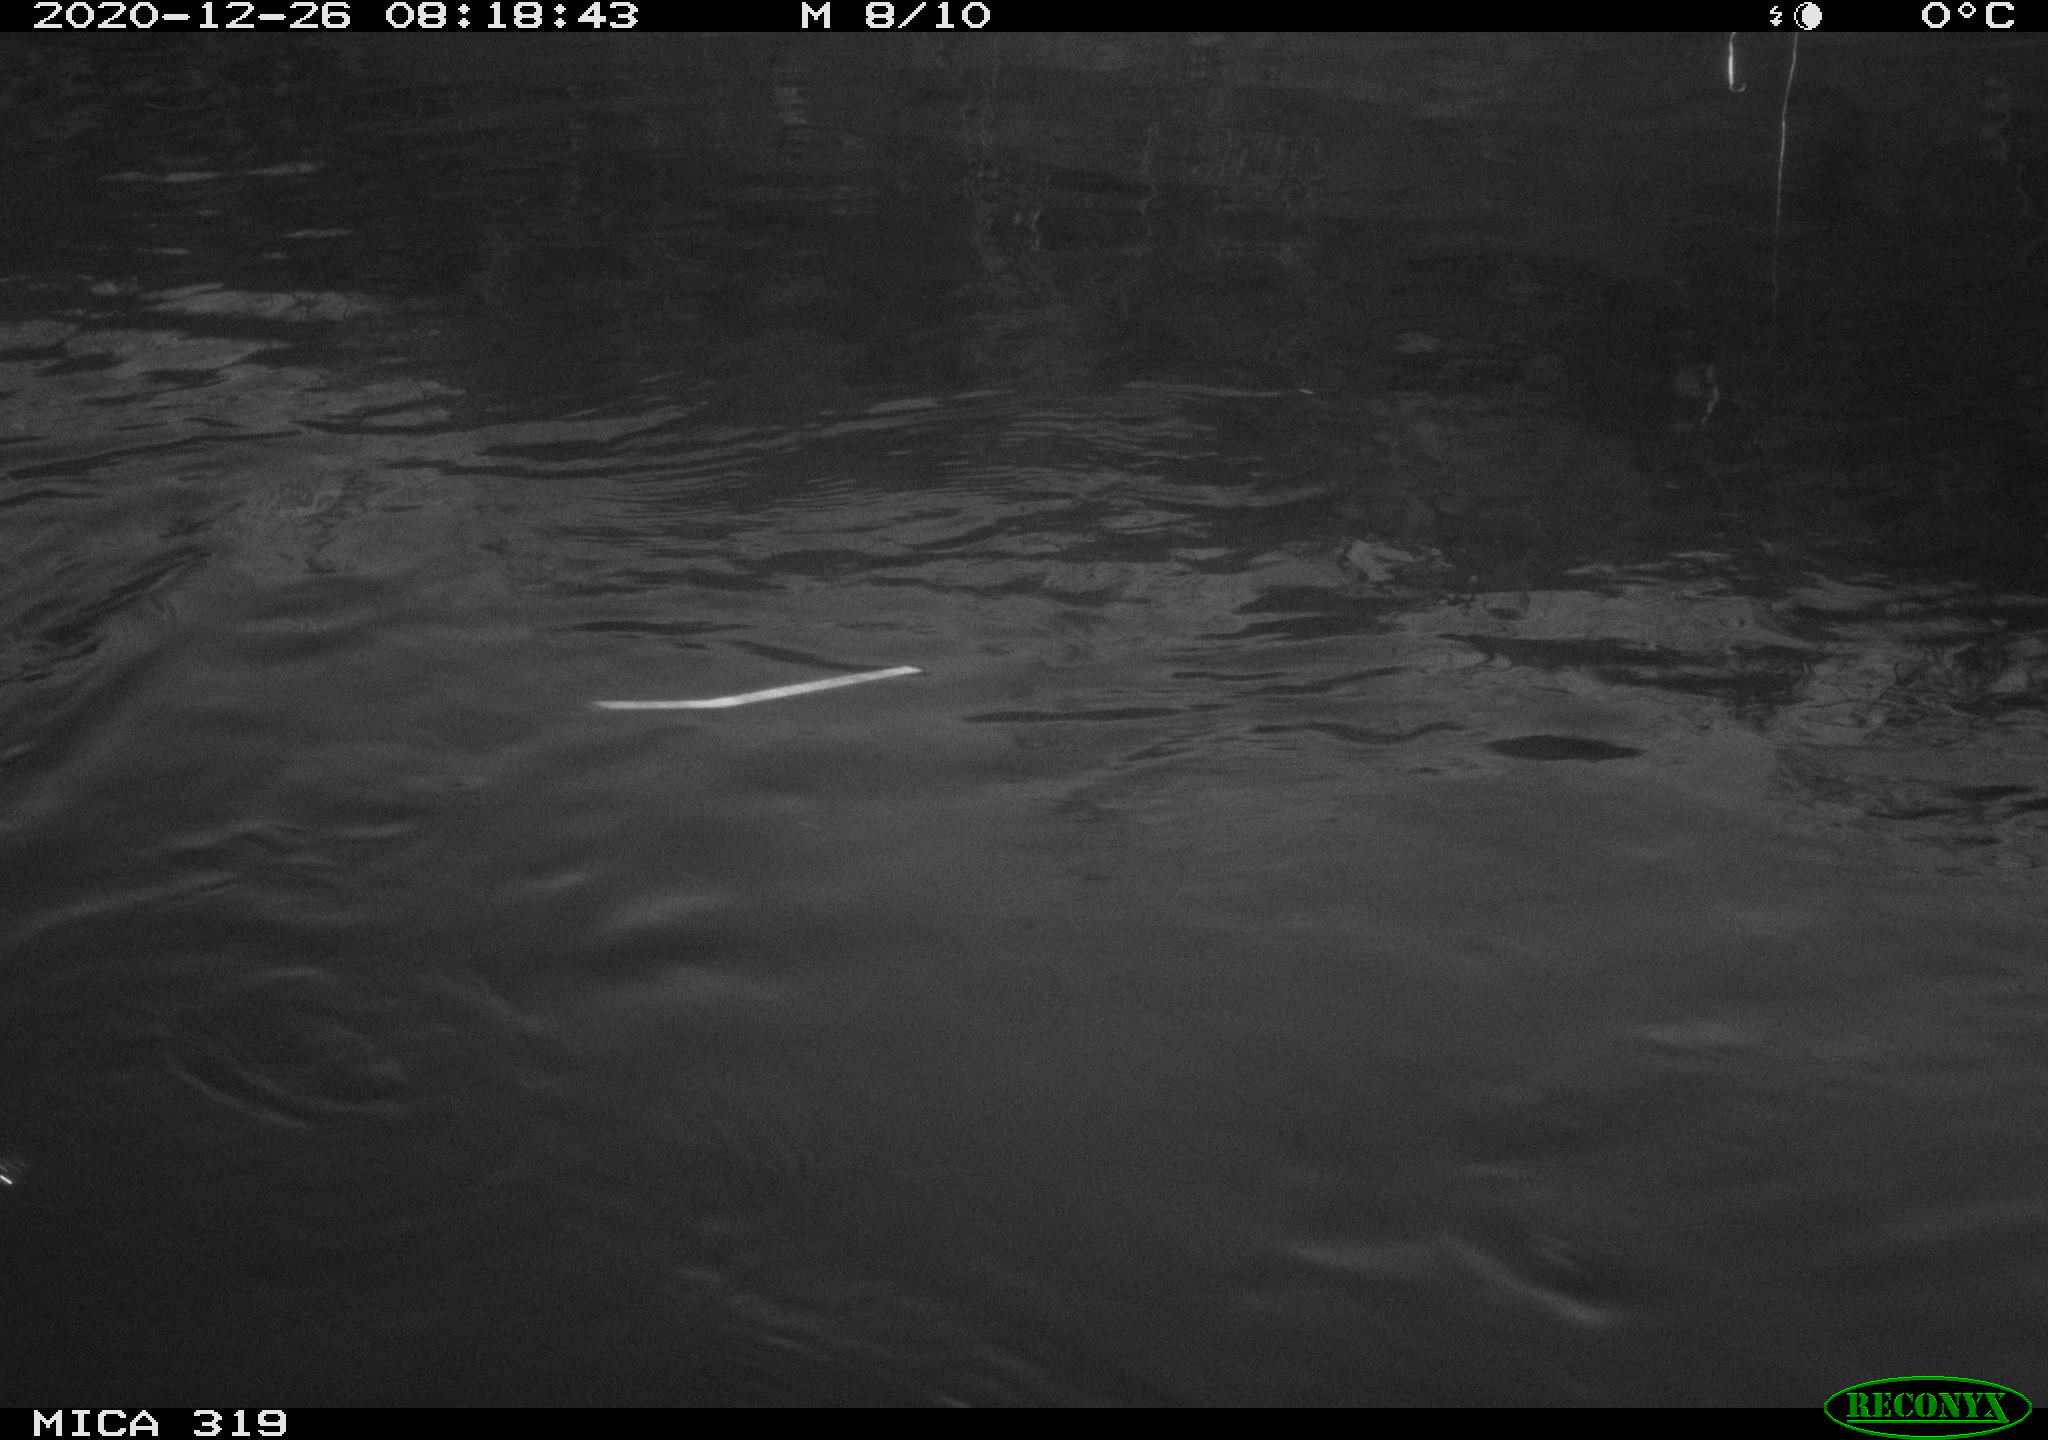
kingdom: Animalia
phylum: Chordata
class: Aves
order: Anseriformes
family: Anatidae
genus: Anas
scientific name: Anas platyrhynchos
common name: Mallard
